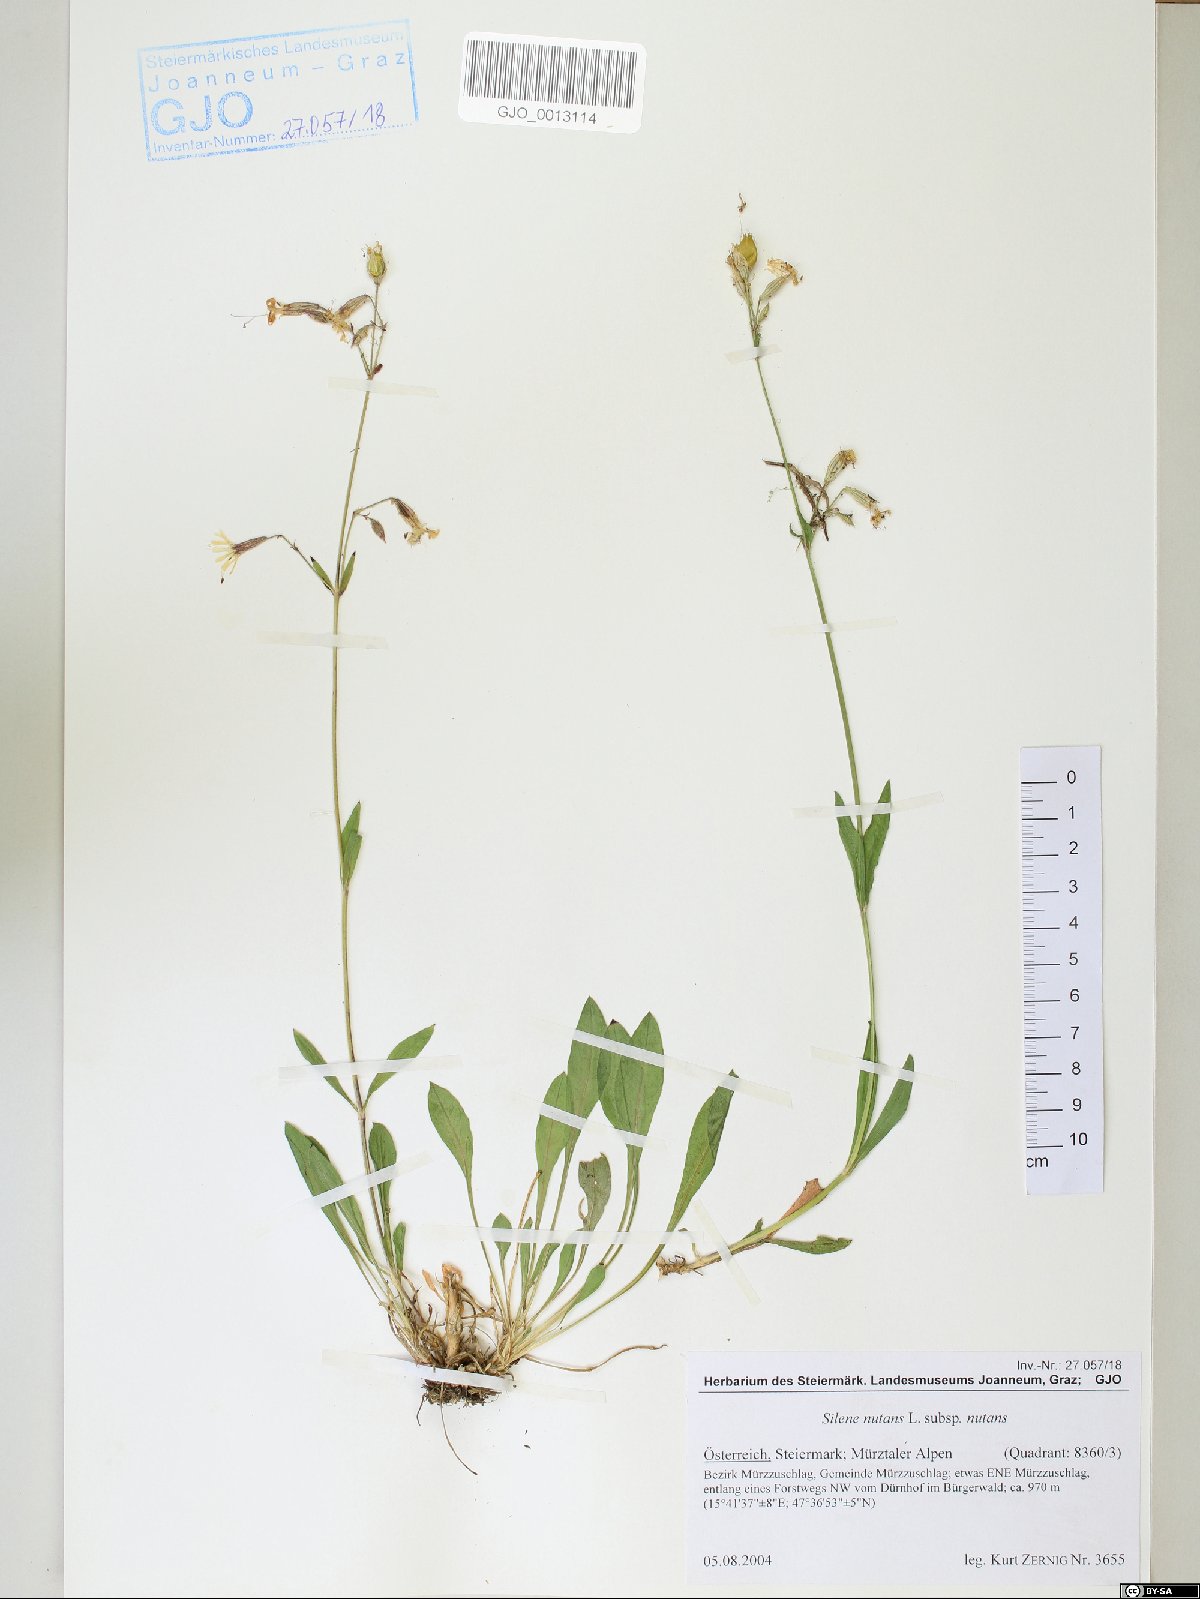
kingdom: Plantae
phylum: Tracheophyta
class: Magnoliopsida
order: Caryophyllales
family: Caryophyllaceae
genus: Silene
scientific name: Silene nutans
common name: Nottingham catchfly
